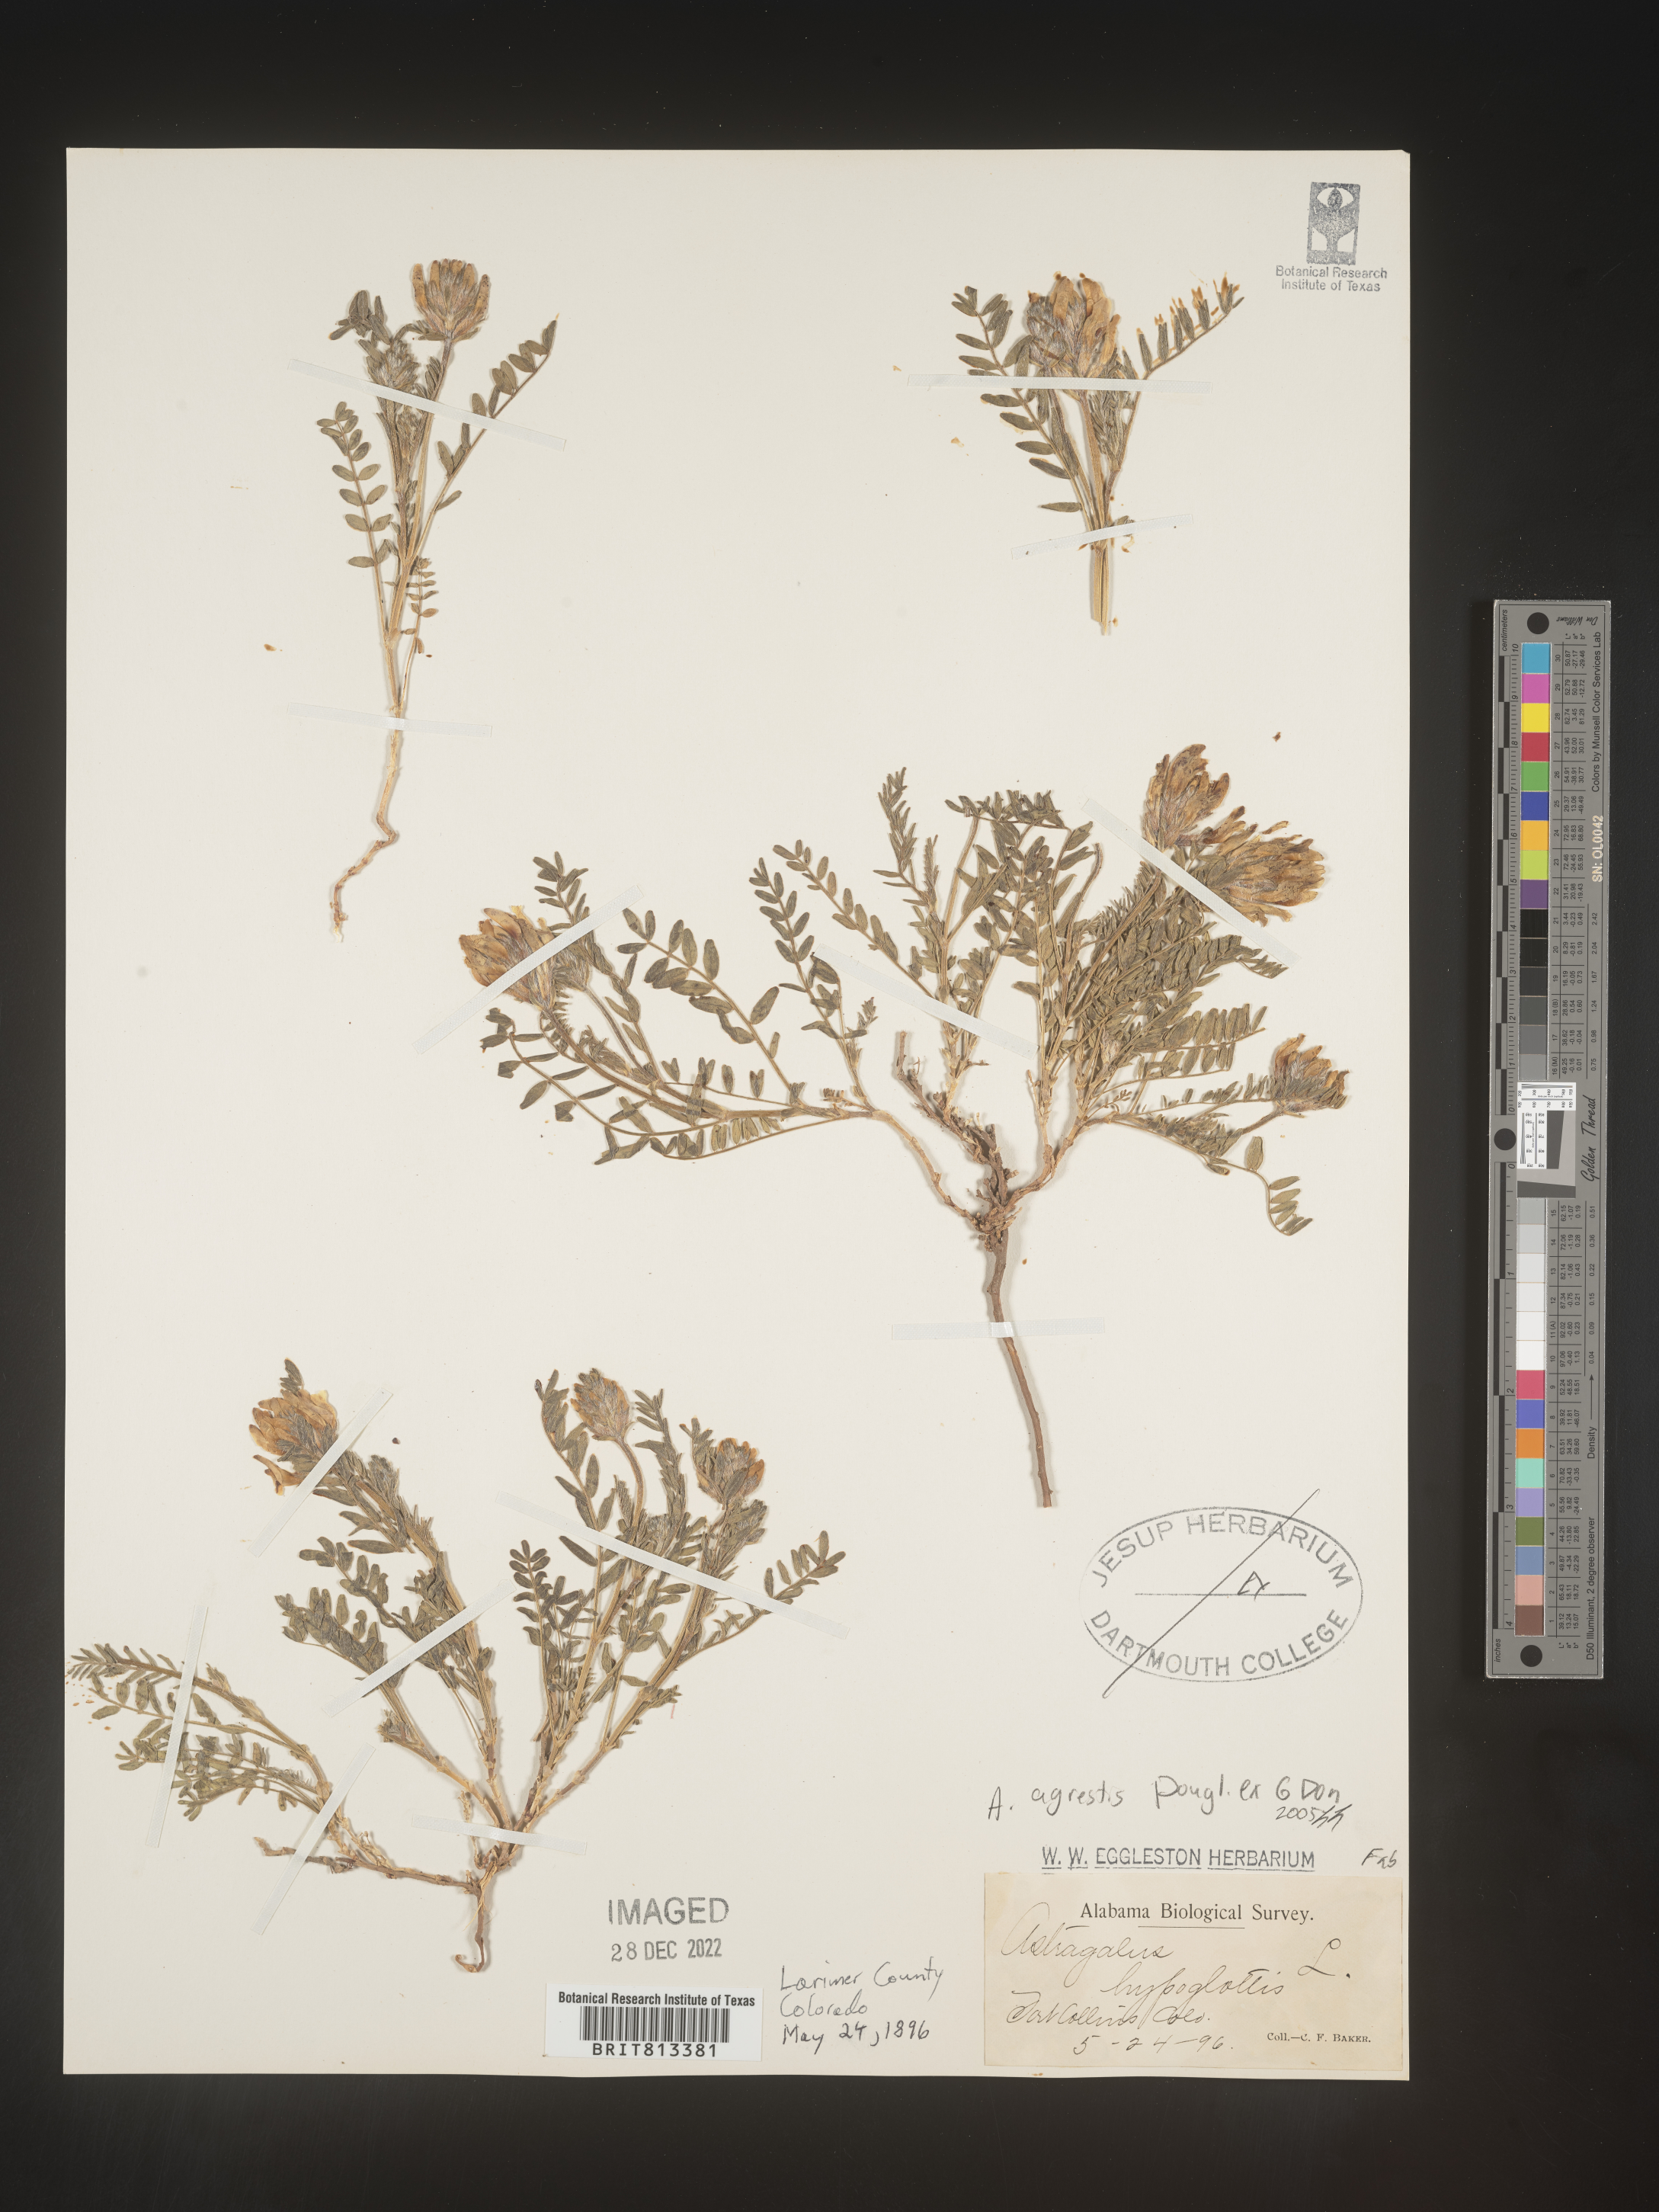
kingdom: Plantae
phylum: Tracheophyta
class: Magnoliopsida
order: Fabales
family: Fabaceae
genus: Astragalus
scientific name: Astragalus agrestis
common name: Field milk-vetch
